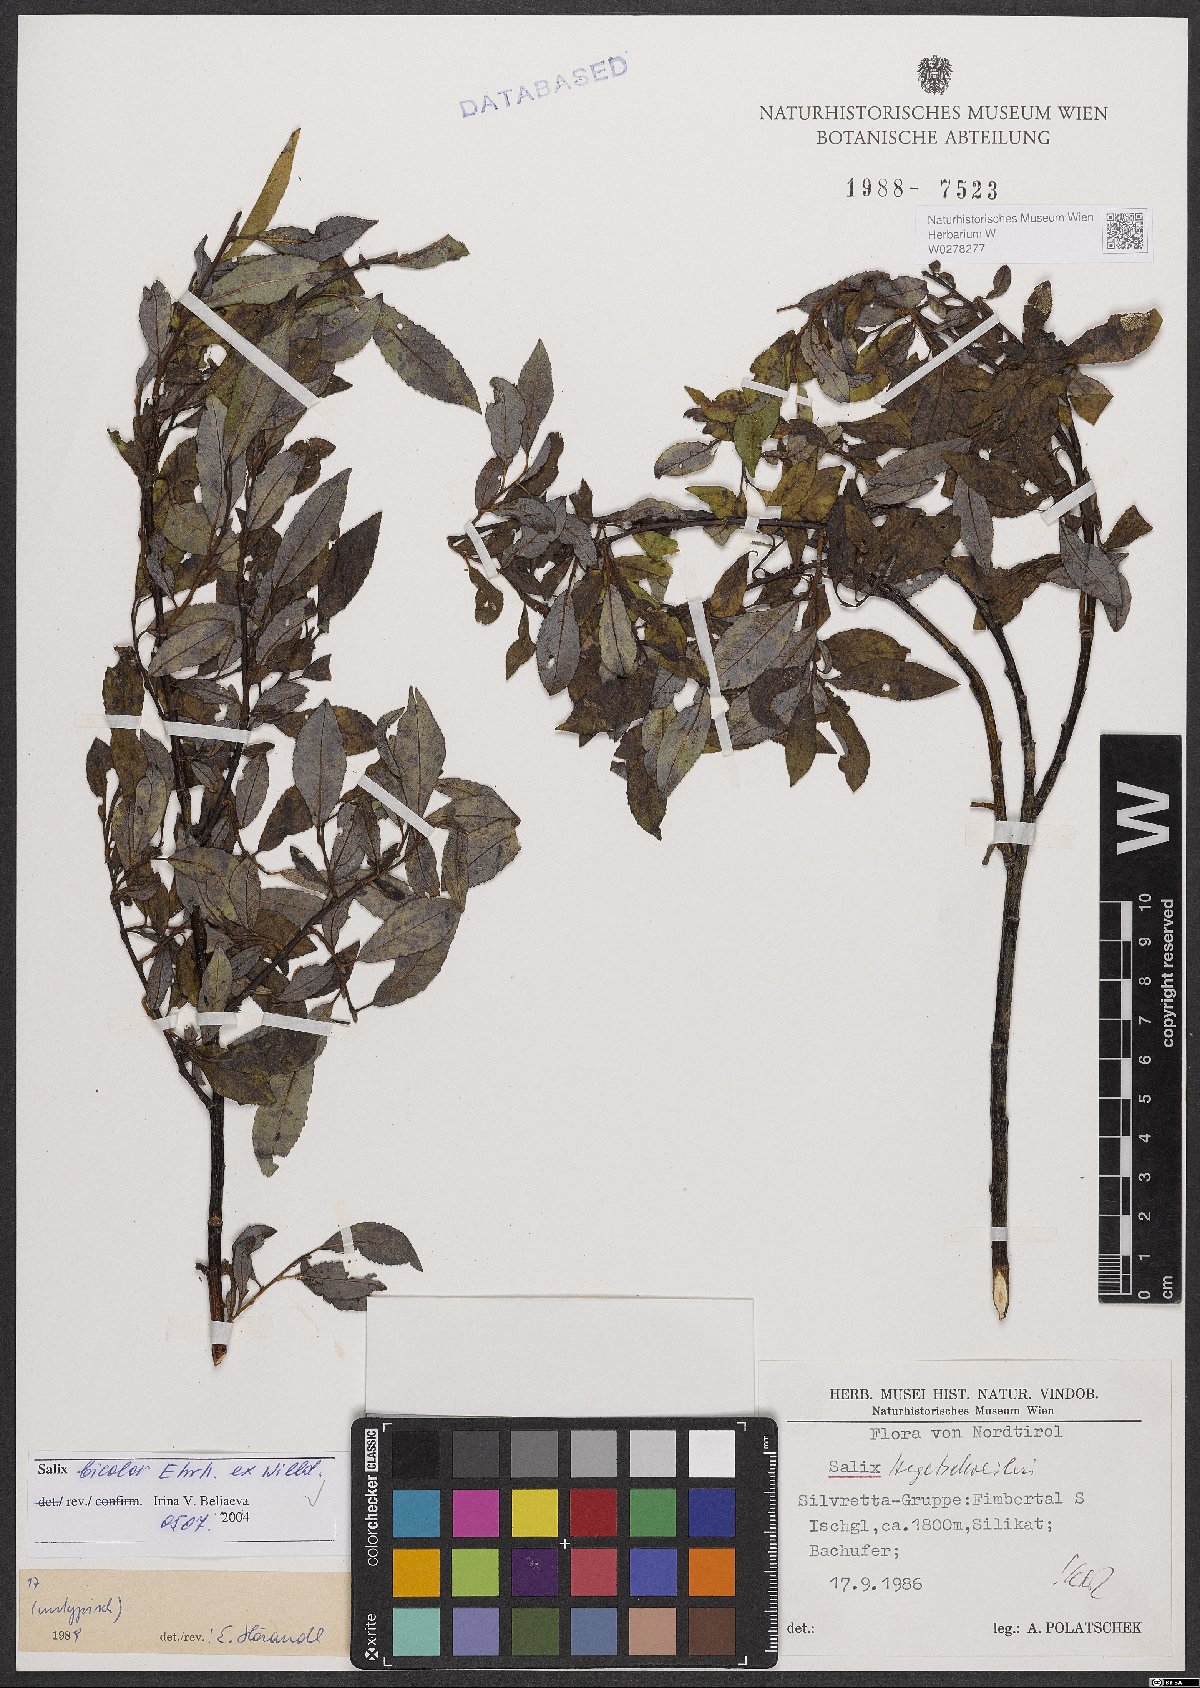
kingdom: Plantae
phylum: Tracheophyta
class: Magnoliopsida
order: Malpighiales
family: Salicaceae
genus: Salix
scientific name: Salix bicolor
